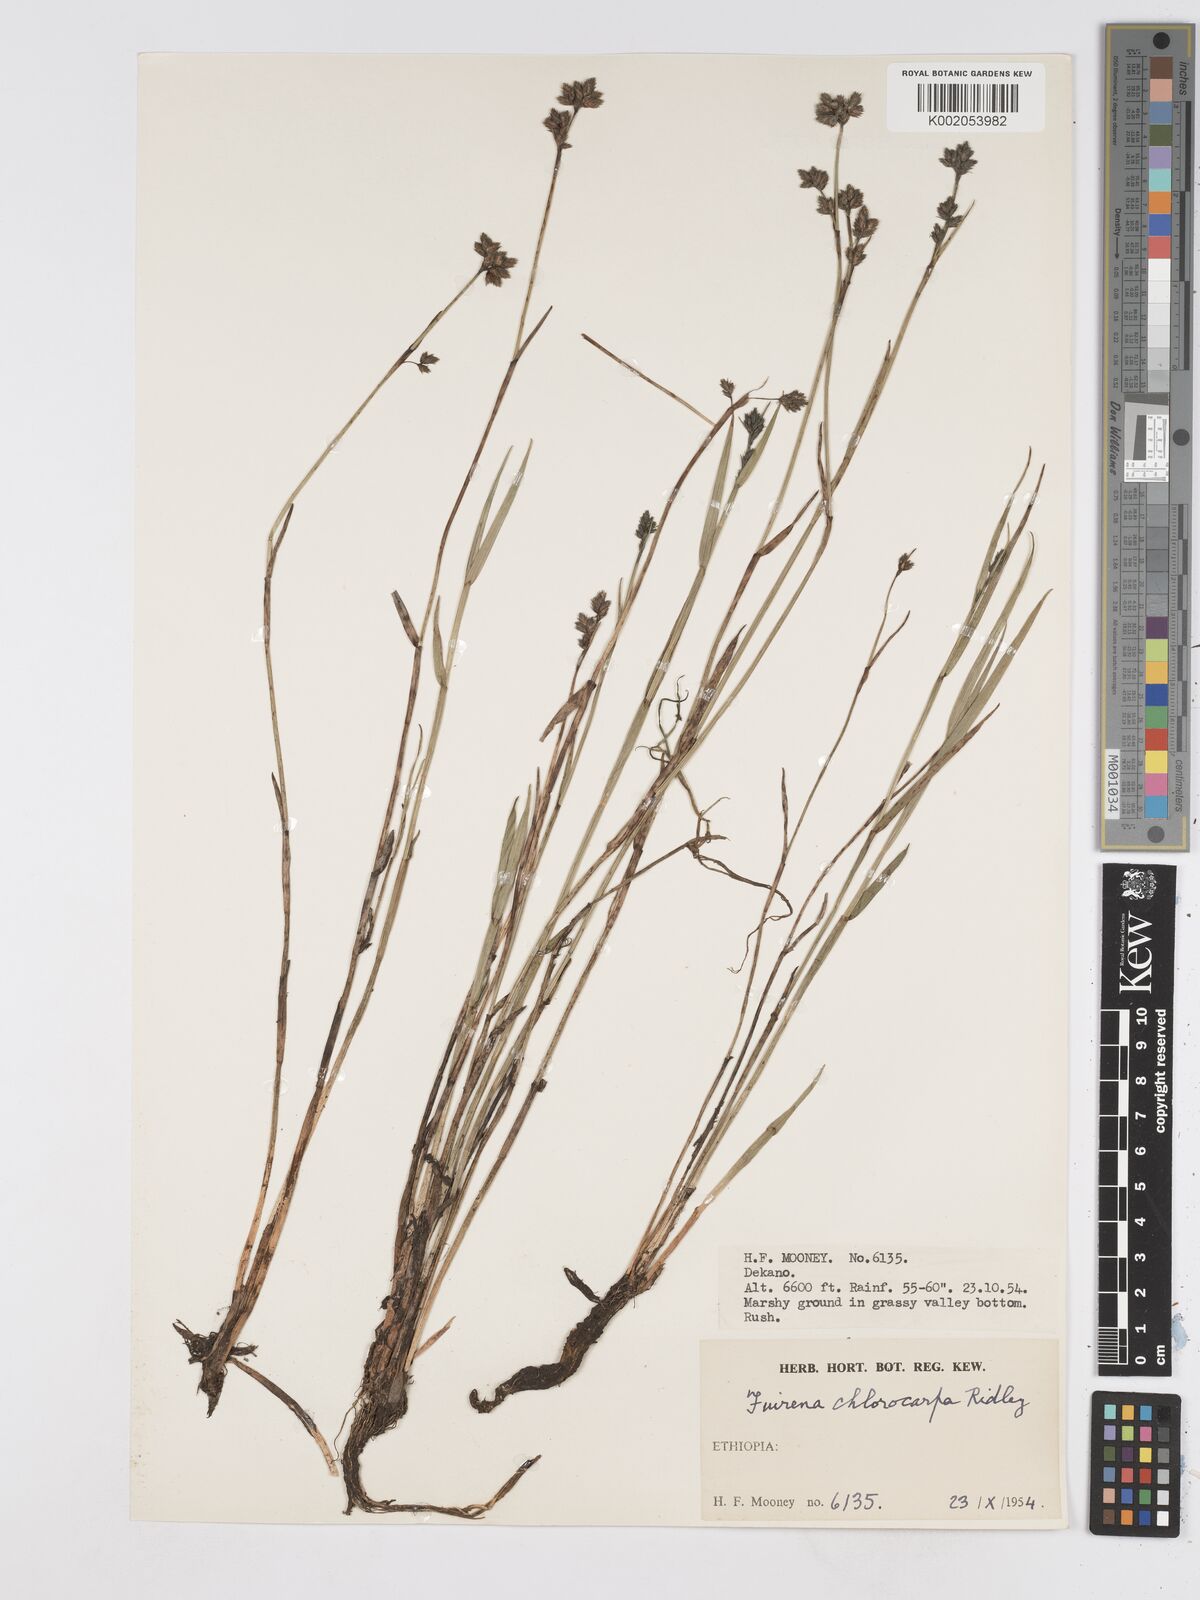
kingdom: Plantae
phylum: Tracheophyta
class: Liliopsida
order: Poales
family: Cyperaceae
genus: Fuirena
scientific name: Fuirena stricta
